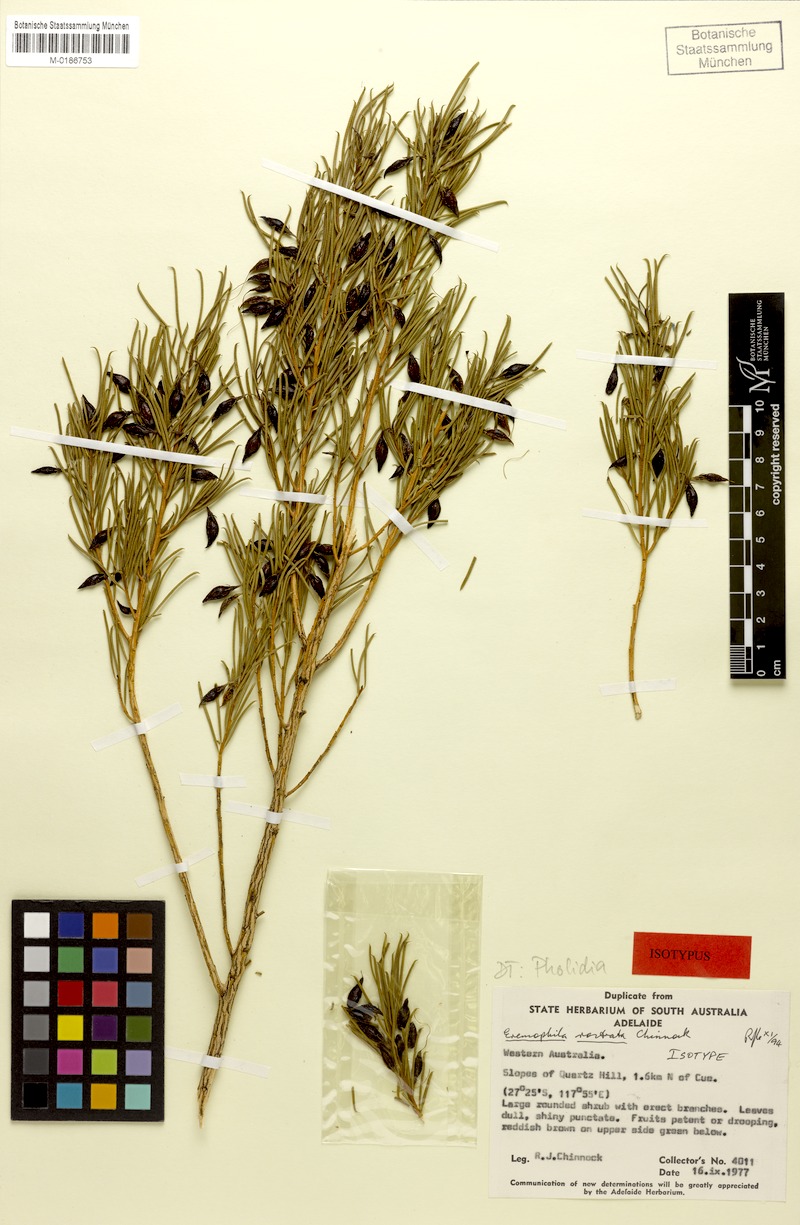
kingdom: Plantae
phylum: Tracheophyta
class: Magnoliopsida
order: Lamiales
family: Scrophulariaceae
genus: Eremophila
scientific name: Eremophila rostrata
